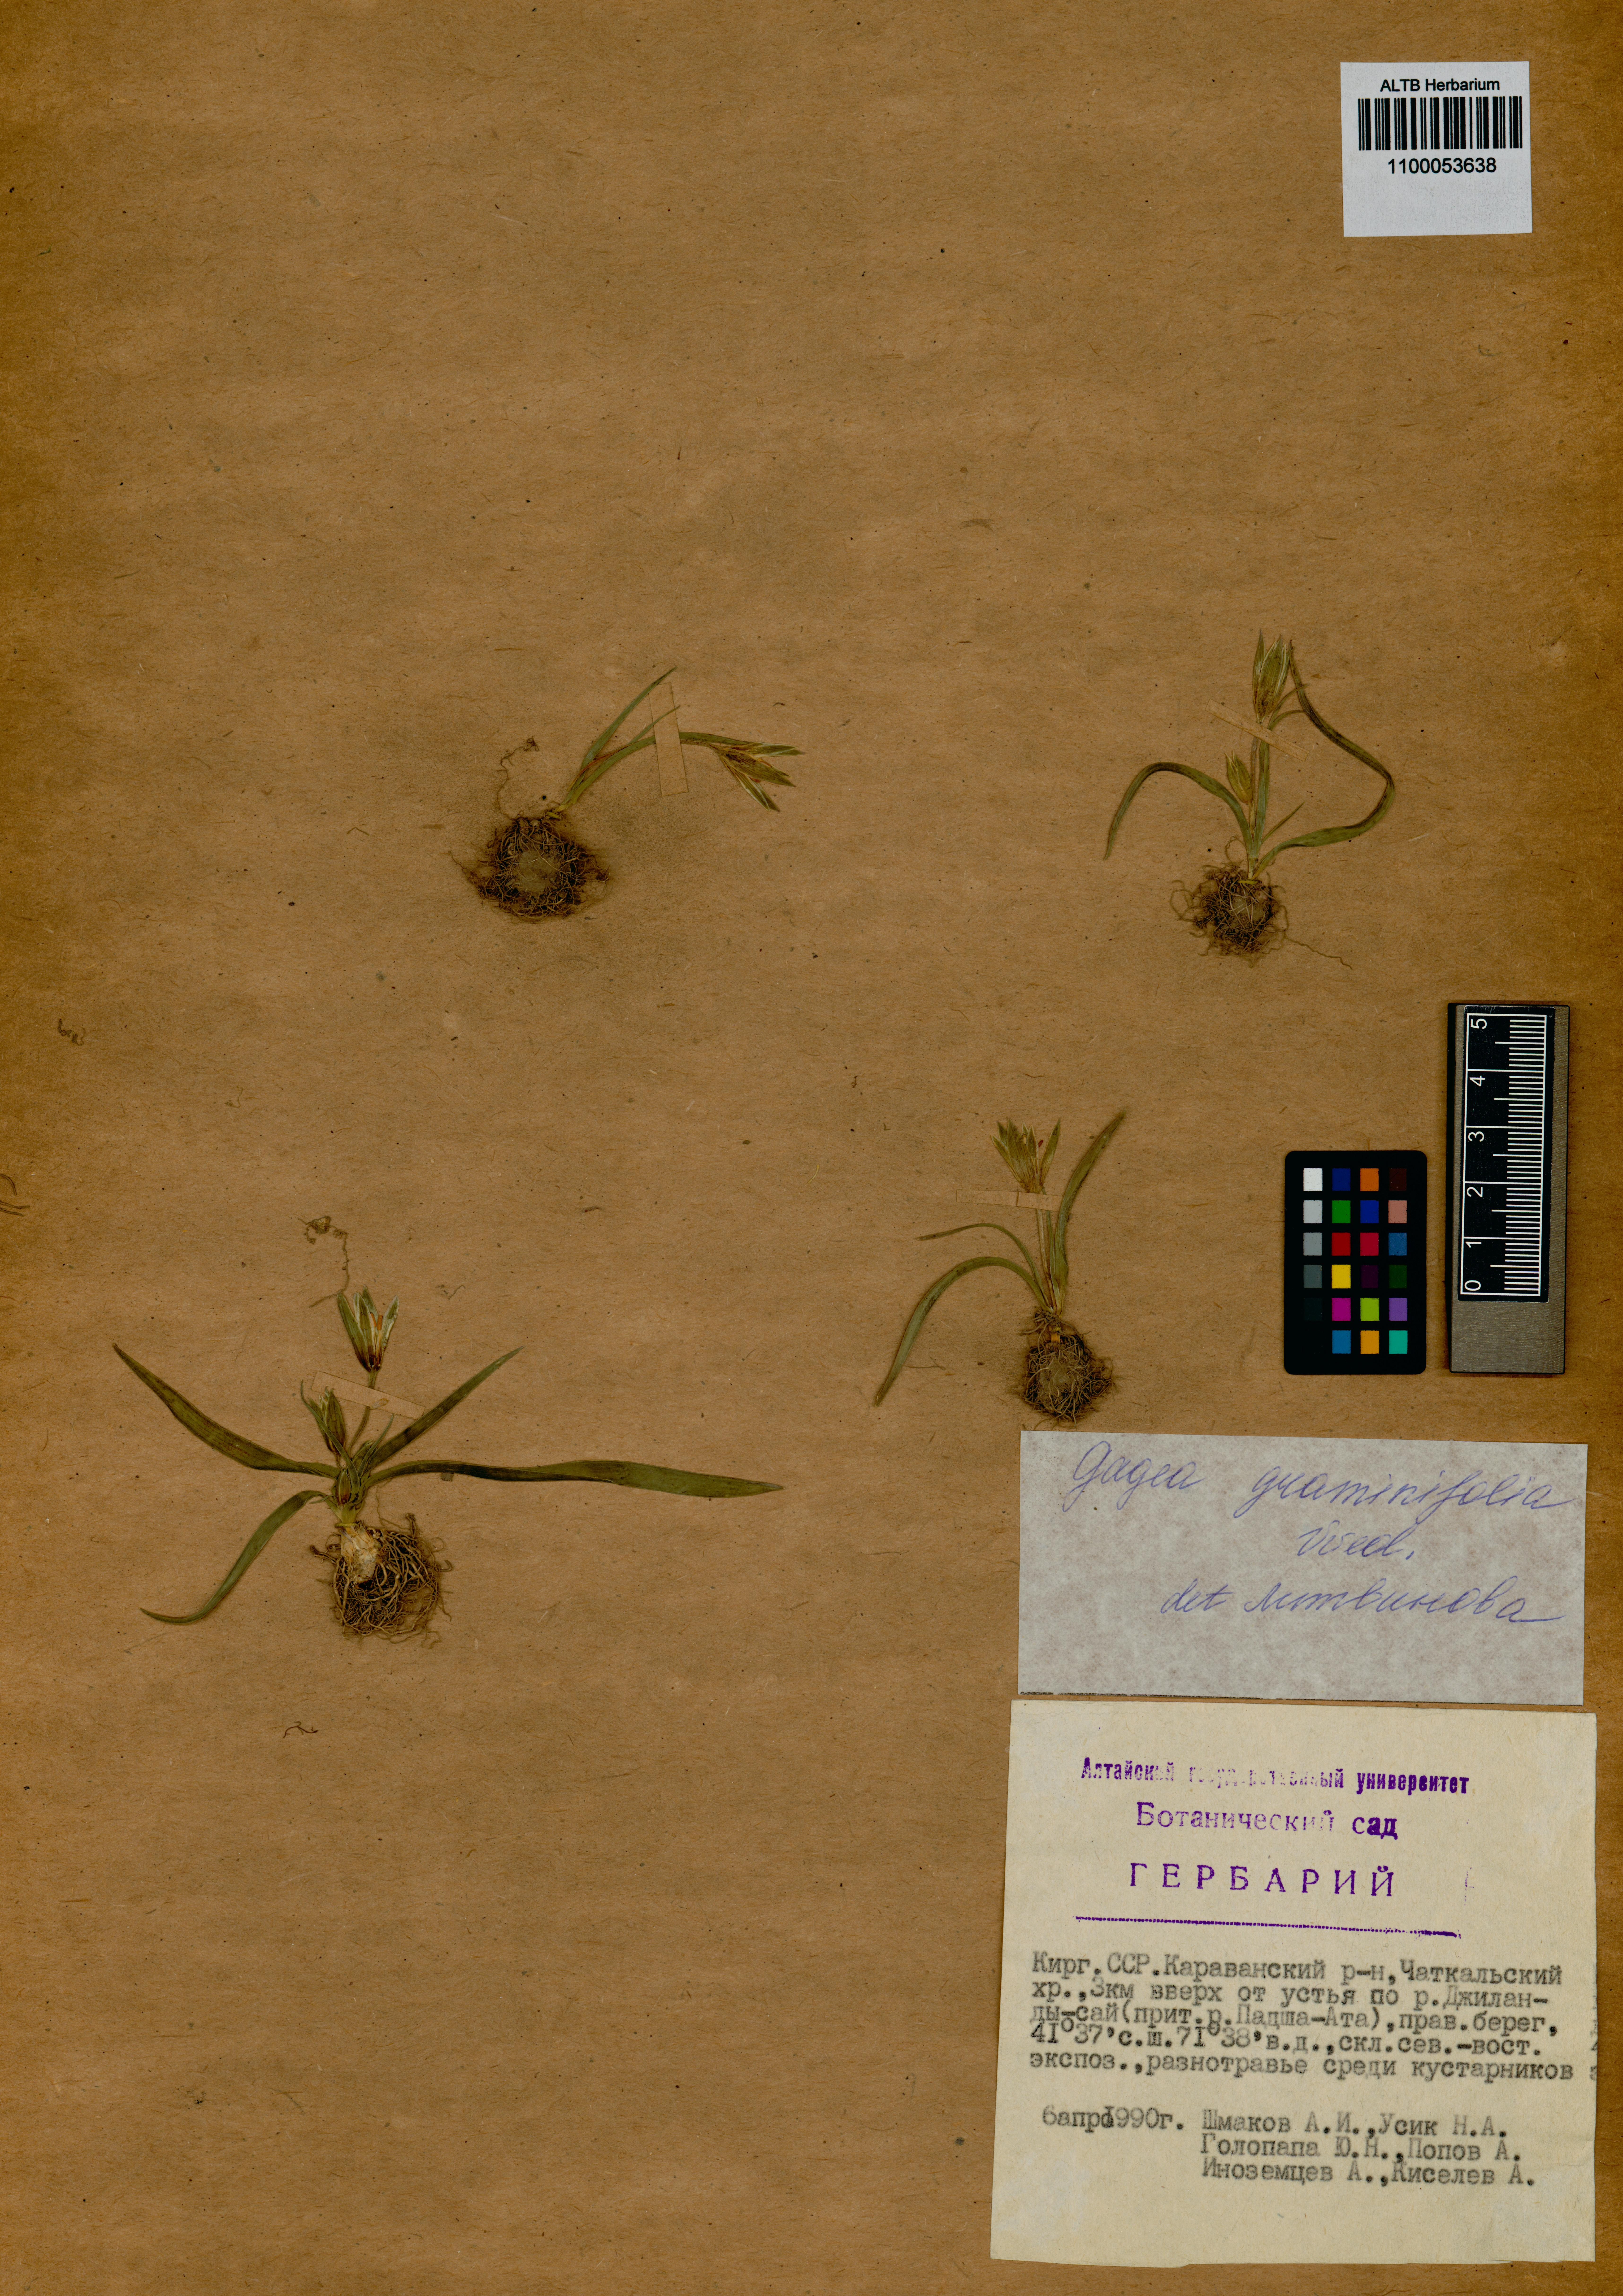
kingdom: Plantae
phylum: Tracheophyta
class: Liliopsida
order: Liliales
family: Liliaceae
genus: Gagea
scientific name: Gagea graminifolia
